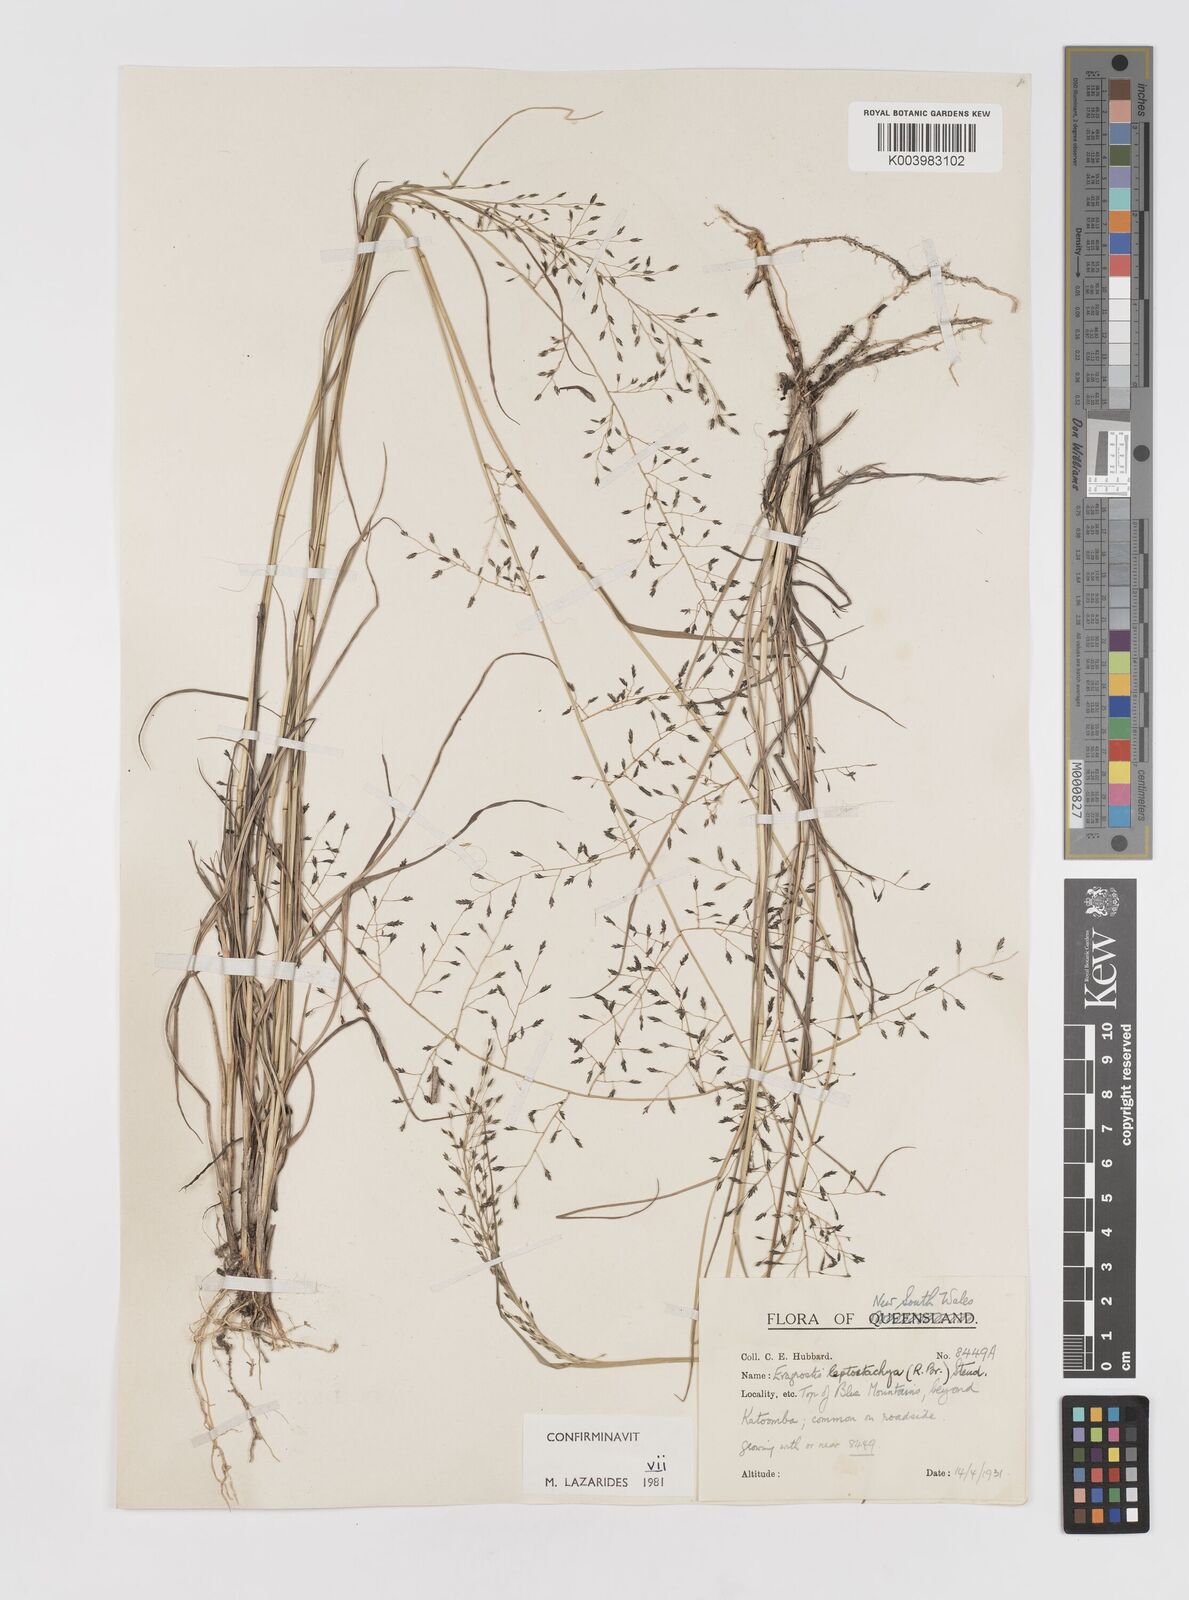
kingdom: Plantae
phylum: Tracheophyta
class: Liliopsida
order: Poales
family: Poaceae
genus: Eragrostis
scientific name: Eragrostis leptostachya
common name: Australian lovegrass
